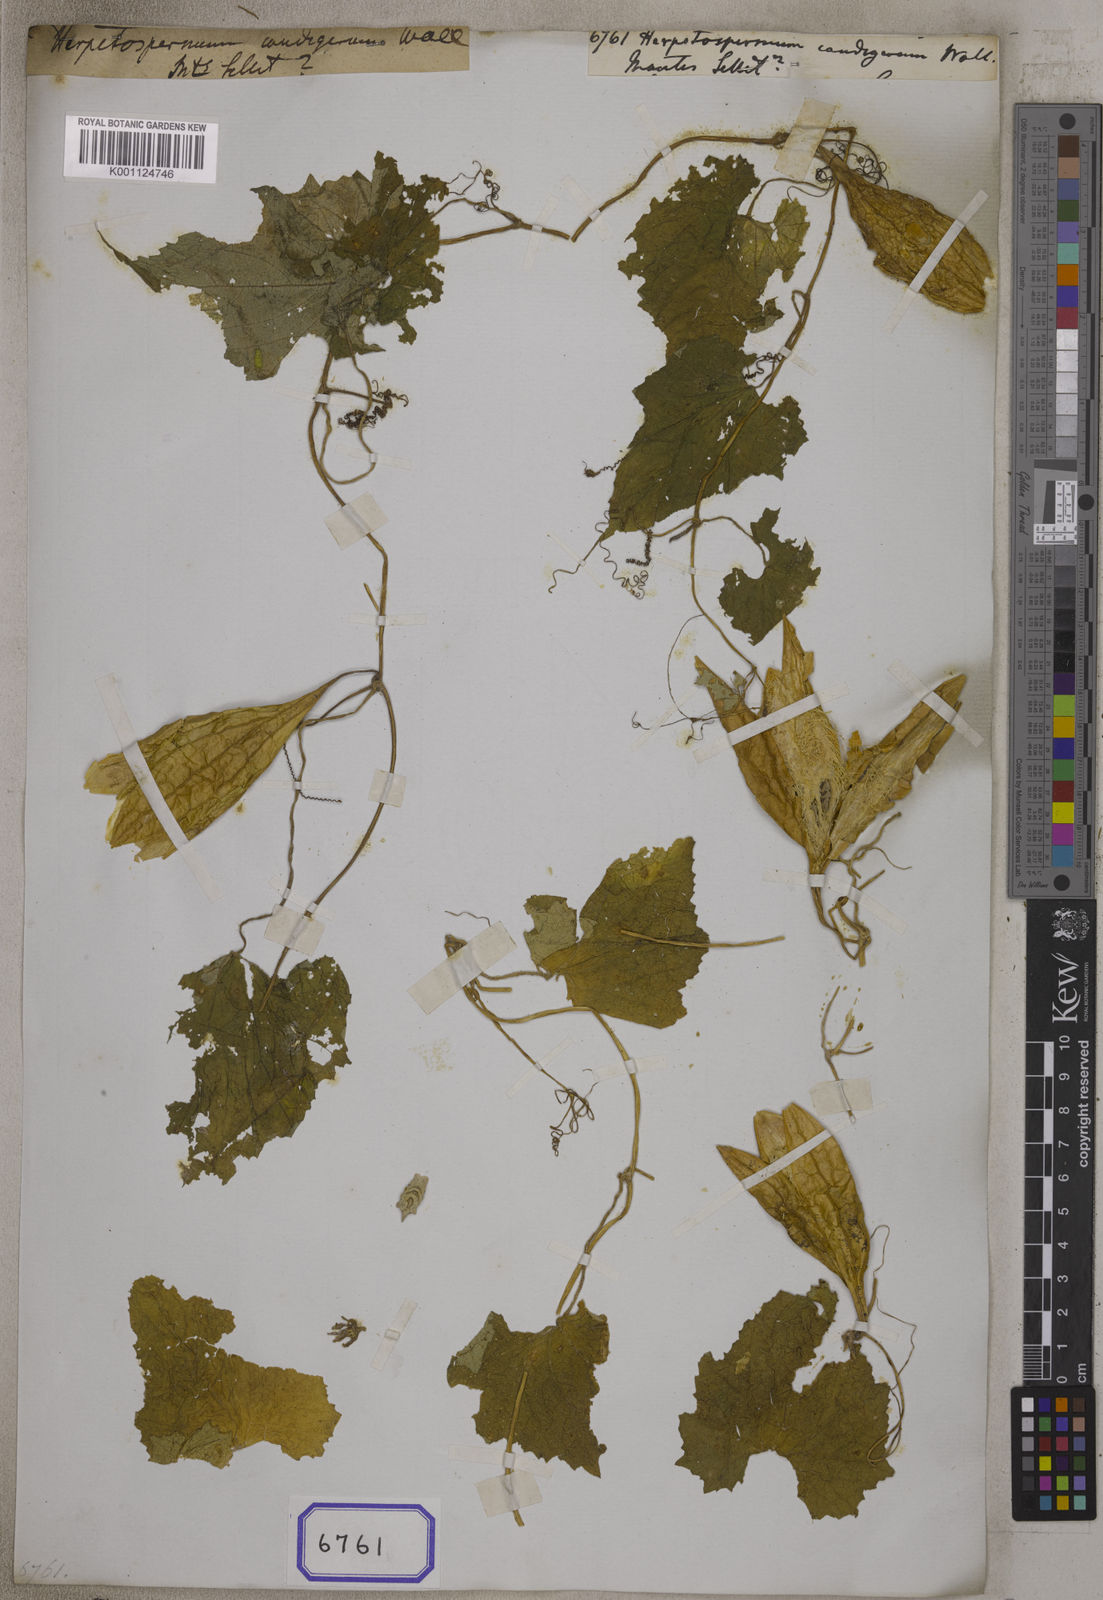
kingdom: Plantae
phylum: Tracheophyta
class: Magnoliopsida
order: Cucurbitales
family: Cucurbitaceae
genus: Herpetospermum
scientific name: Herpetospermum
